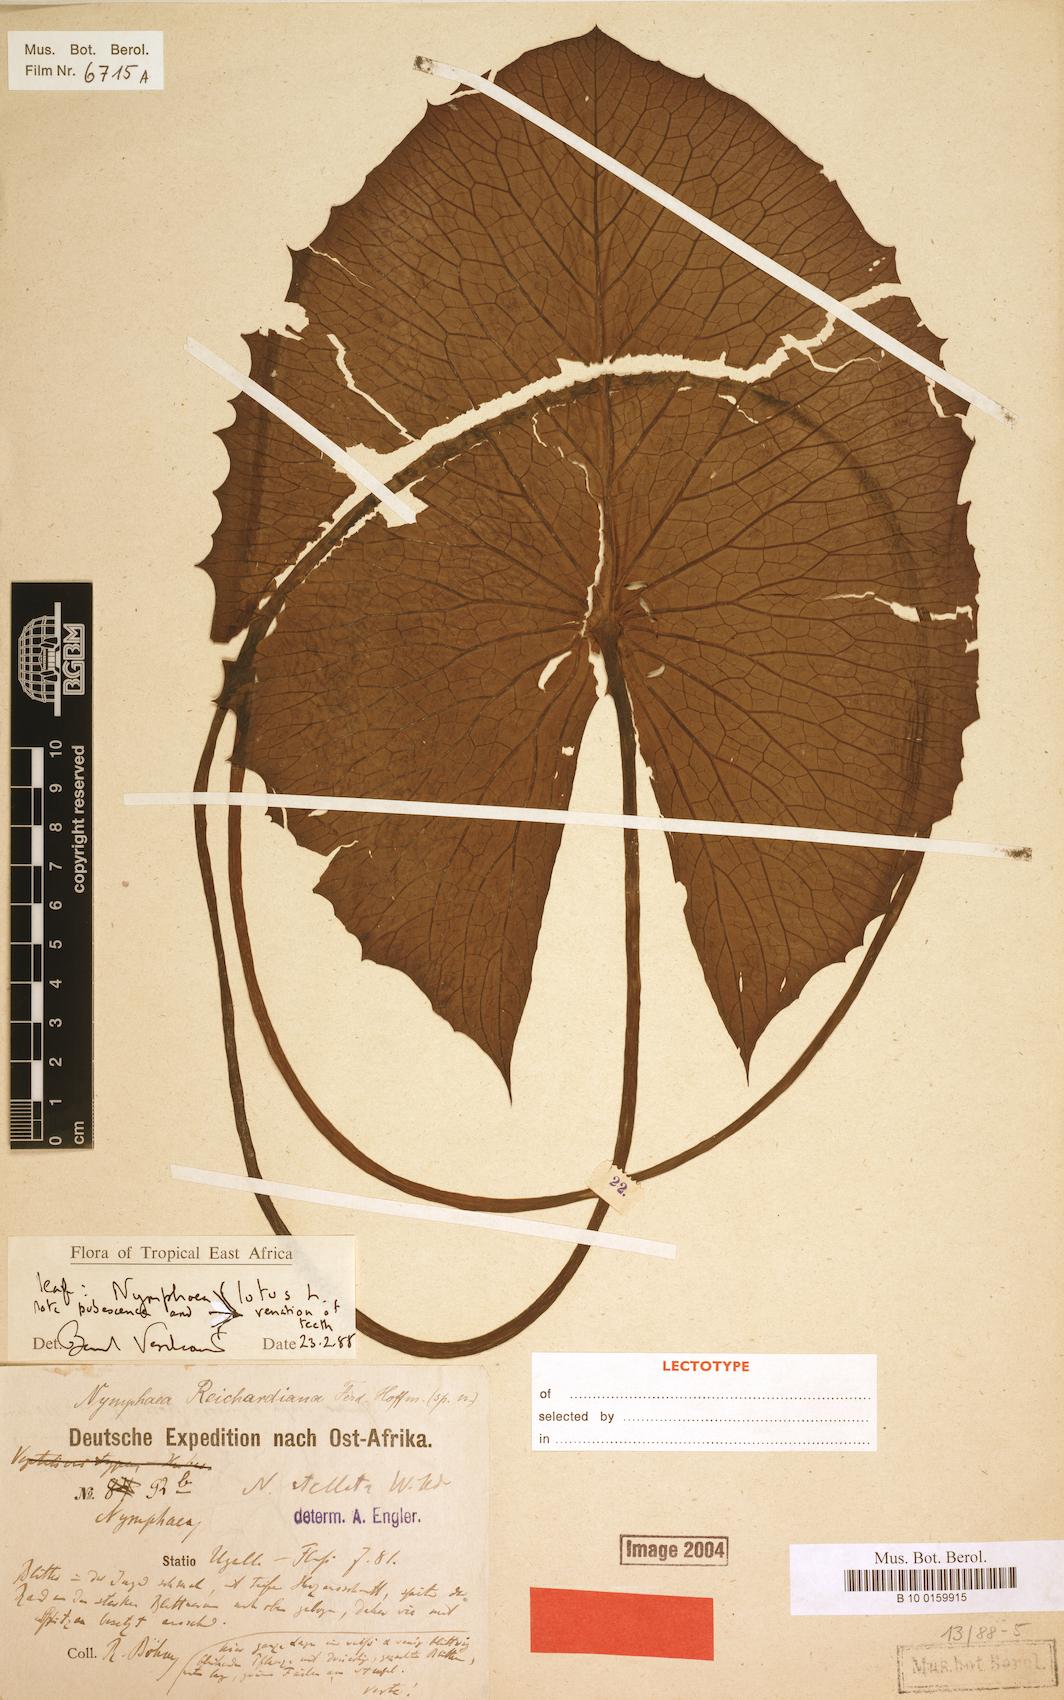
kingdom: Plantae
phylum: Tracheophyta
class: Magnoliopsida
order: Nymphaeales
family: Nymphaeaceae
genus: Nymphaea
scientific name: Nymphaea nouchali
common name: Blue lotus
